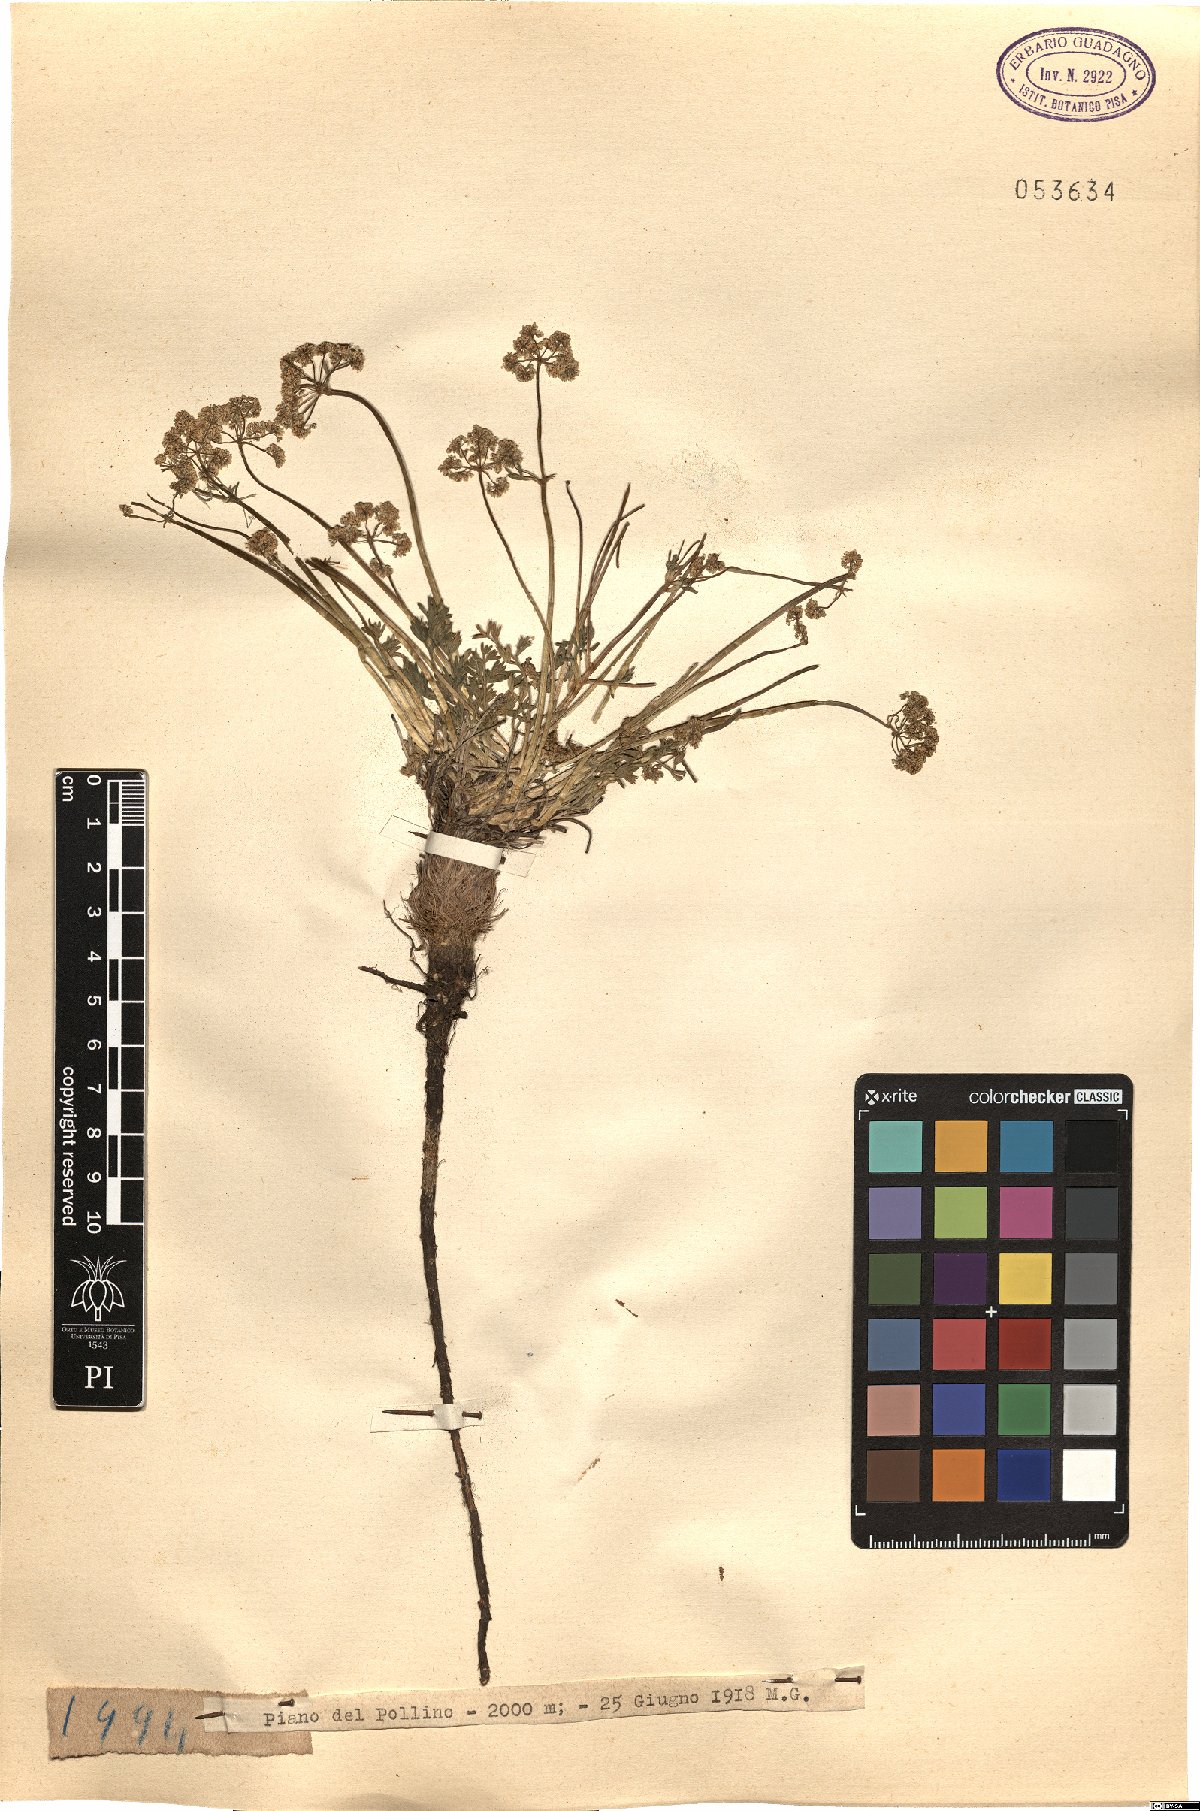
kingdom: Plantae
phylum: Tracheophyta
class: Magnoliopsida
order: Apiales
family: Apiaceae
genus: Trinia
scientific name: Trinia
